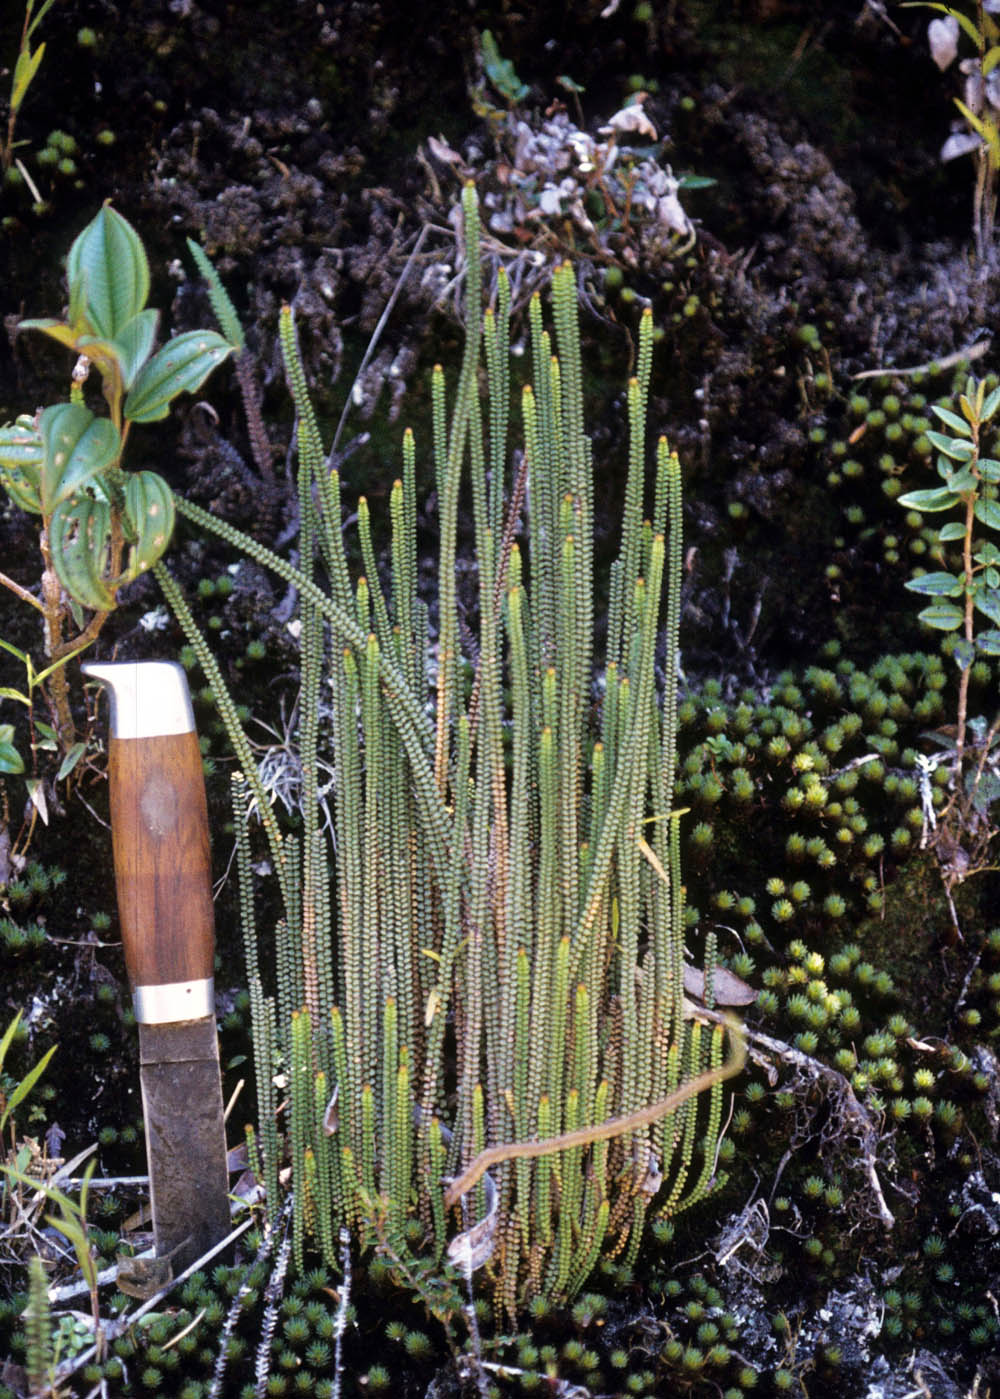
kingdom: Plantae
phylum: Tracheophyta
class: Polypodiopsida
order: Polypodiales
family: Pteridaceae
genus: Jamesonia
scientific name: Jamesonia boliviensis
